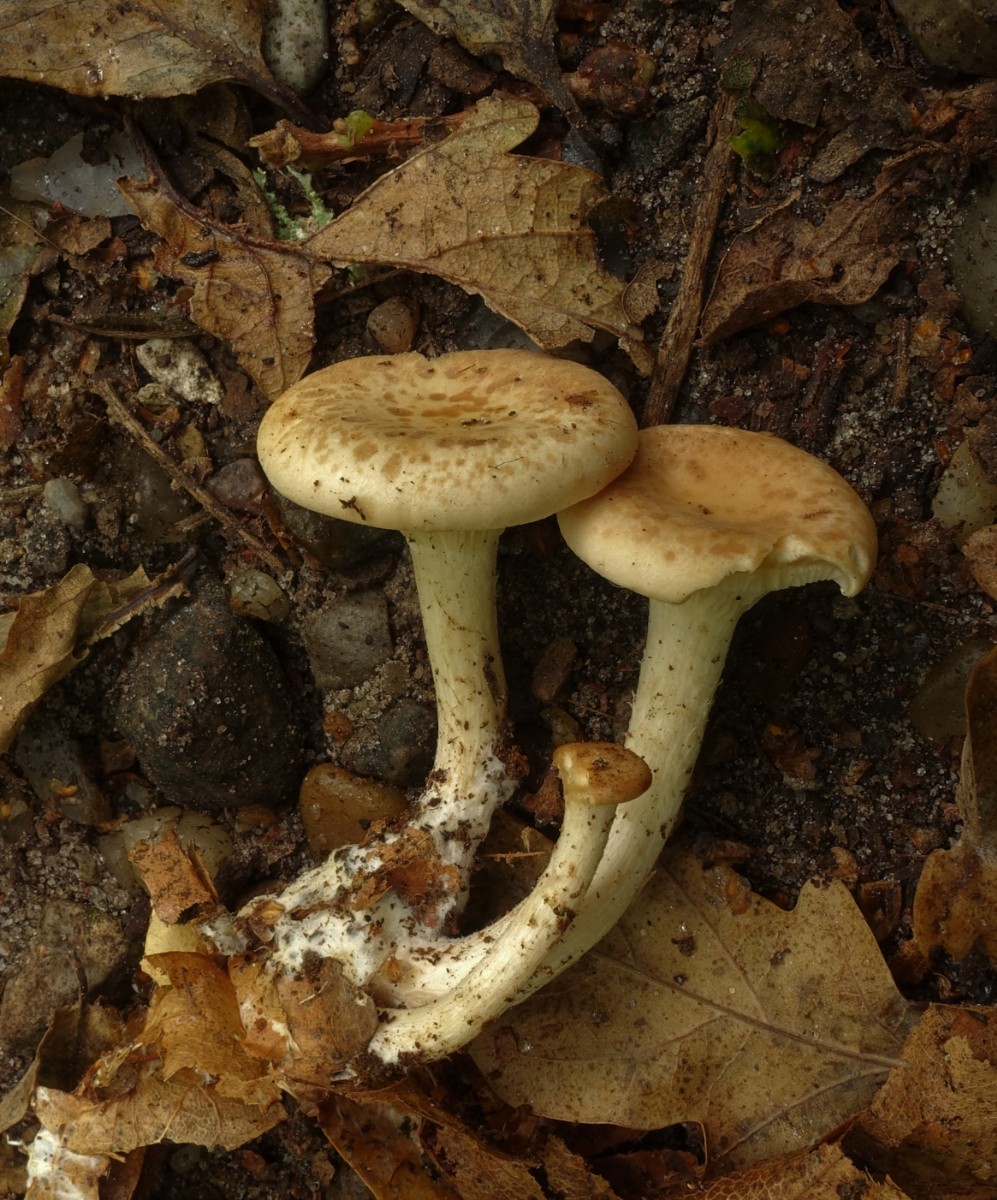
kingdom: Fungi
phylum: Basidiomycota
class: Agaricomycetes
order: Agaricales
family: Tricholomataceae
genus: Paralepista
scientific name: Paralepista gilva
